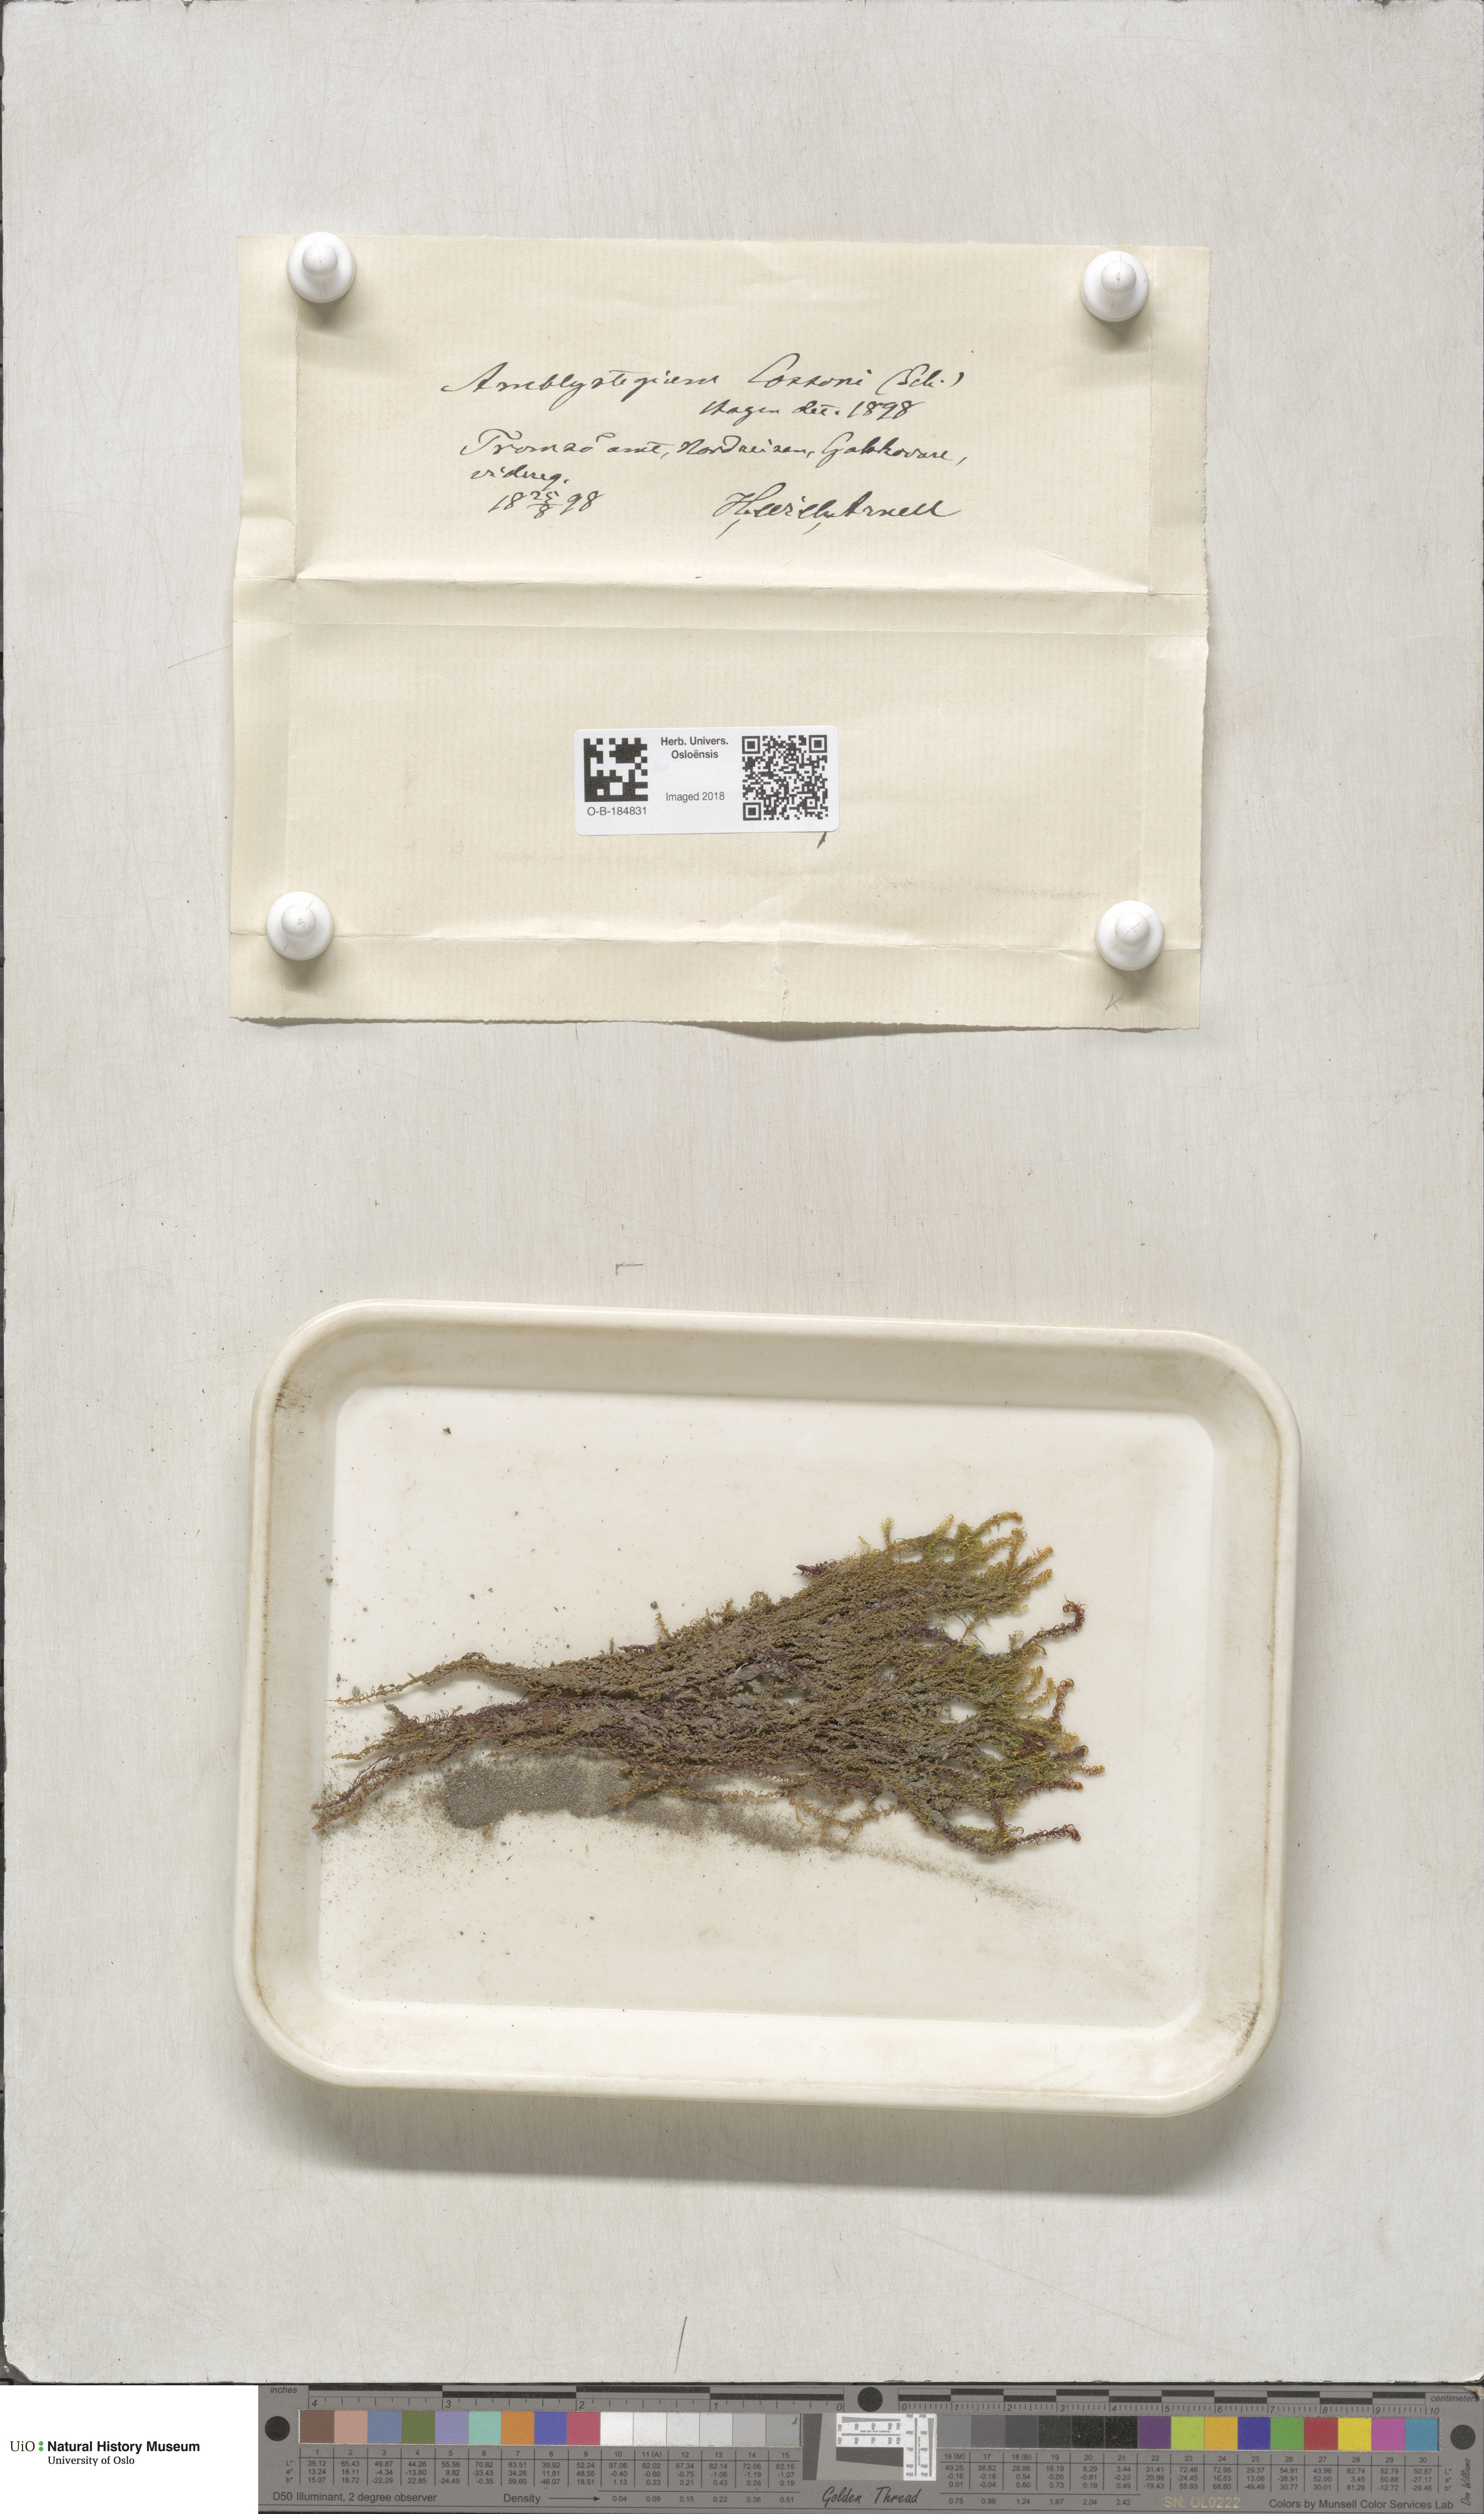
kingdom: Plantae
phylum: Bryophyta
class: Bryopsida
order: Hypnales
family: Scorpidiaceae
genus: Scorpidium
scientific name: Scorpidium cossonii
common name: Cosson's hook moss
